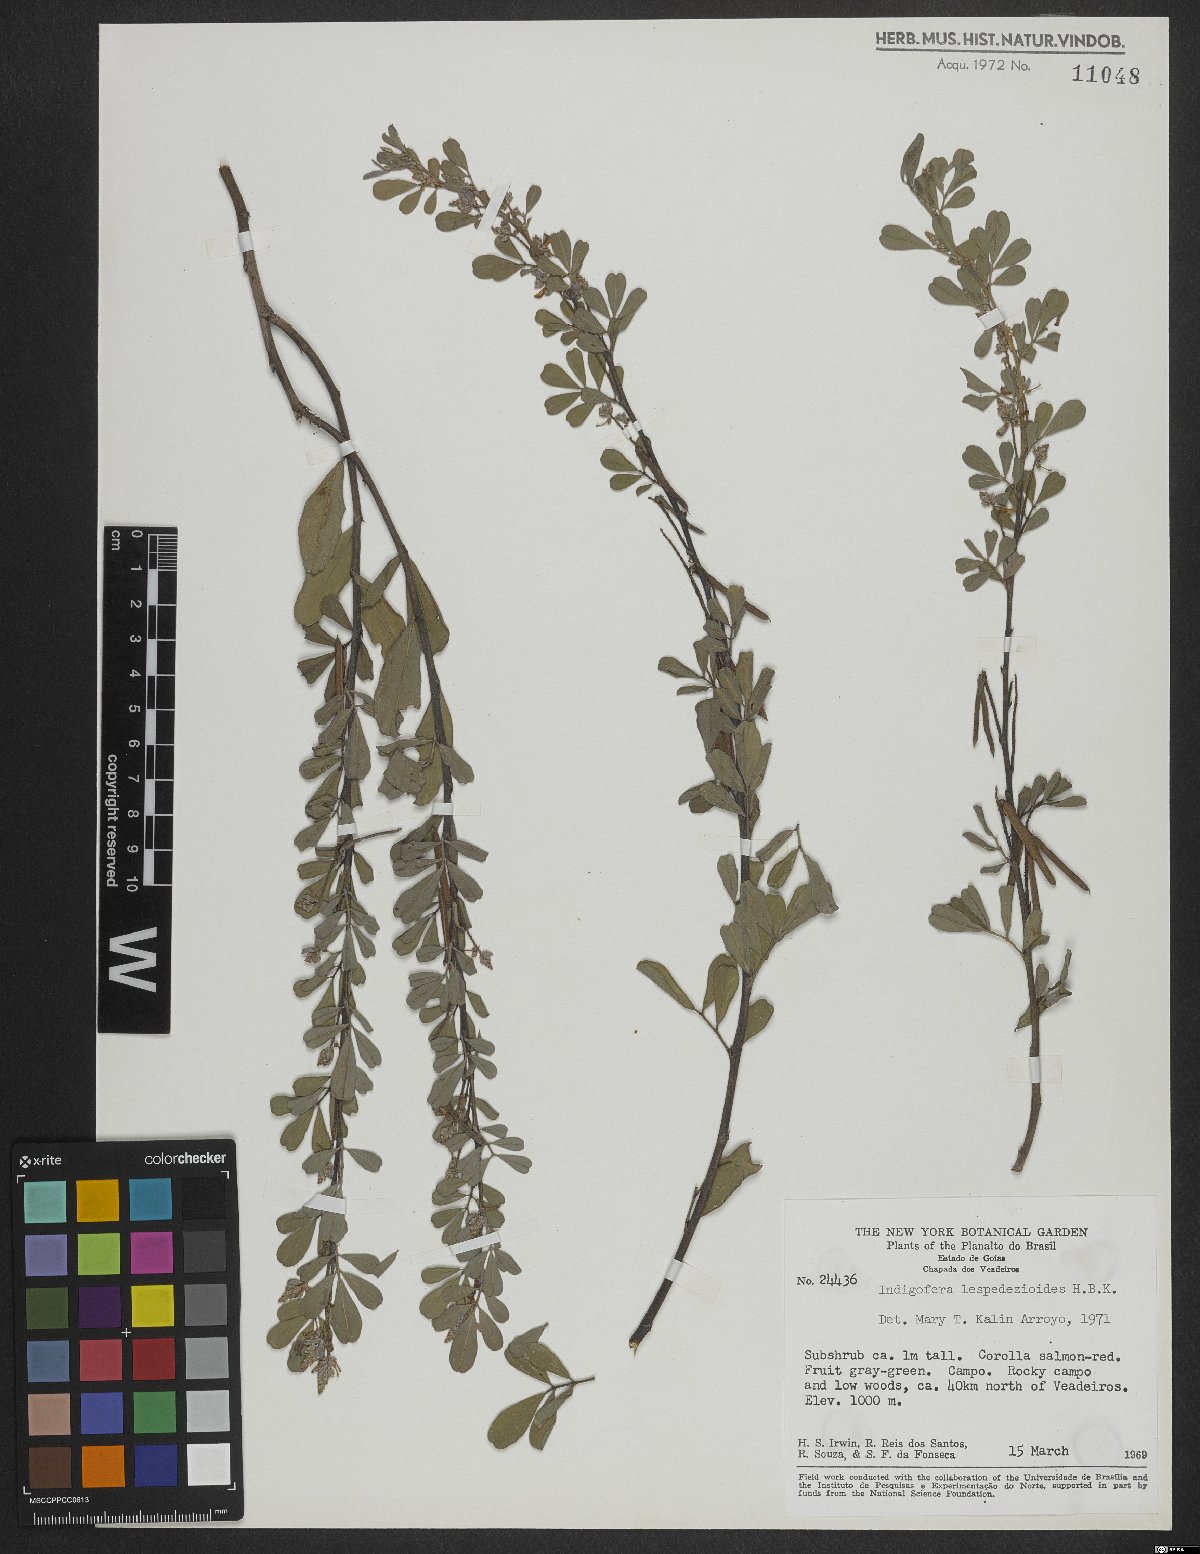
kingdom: Plantae
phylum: Tracheophyta
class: Magnoliopsida
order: Fabales
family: Fabaceae
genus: Indigofera
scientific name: Indigofera cassioides
